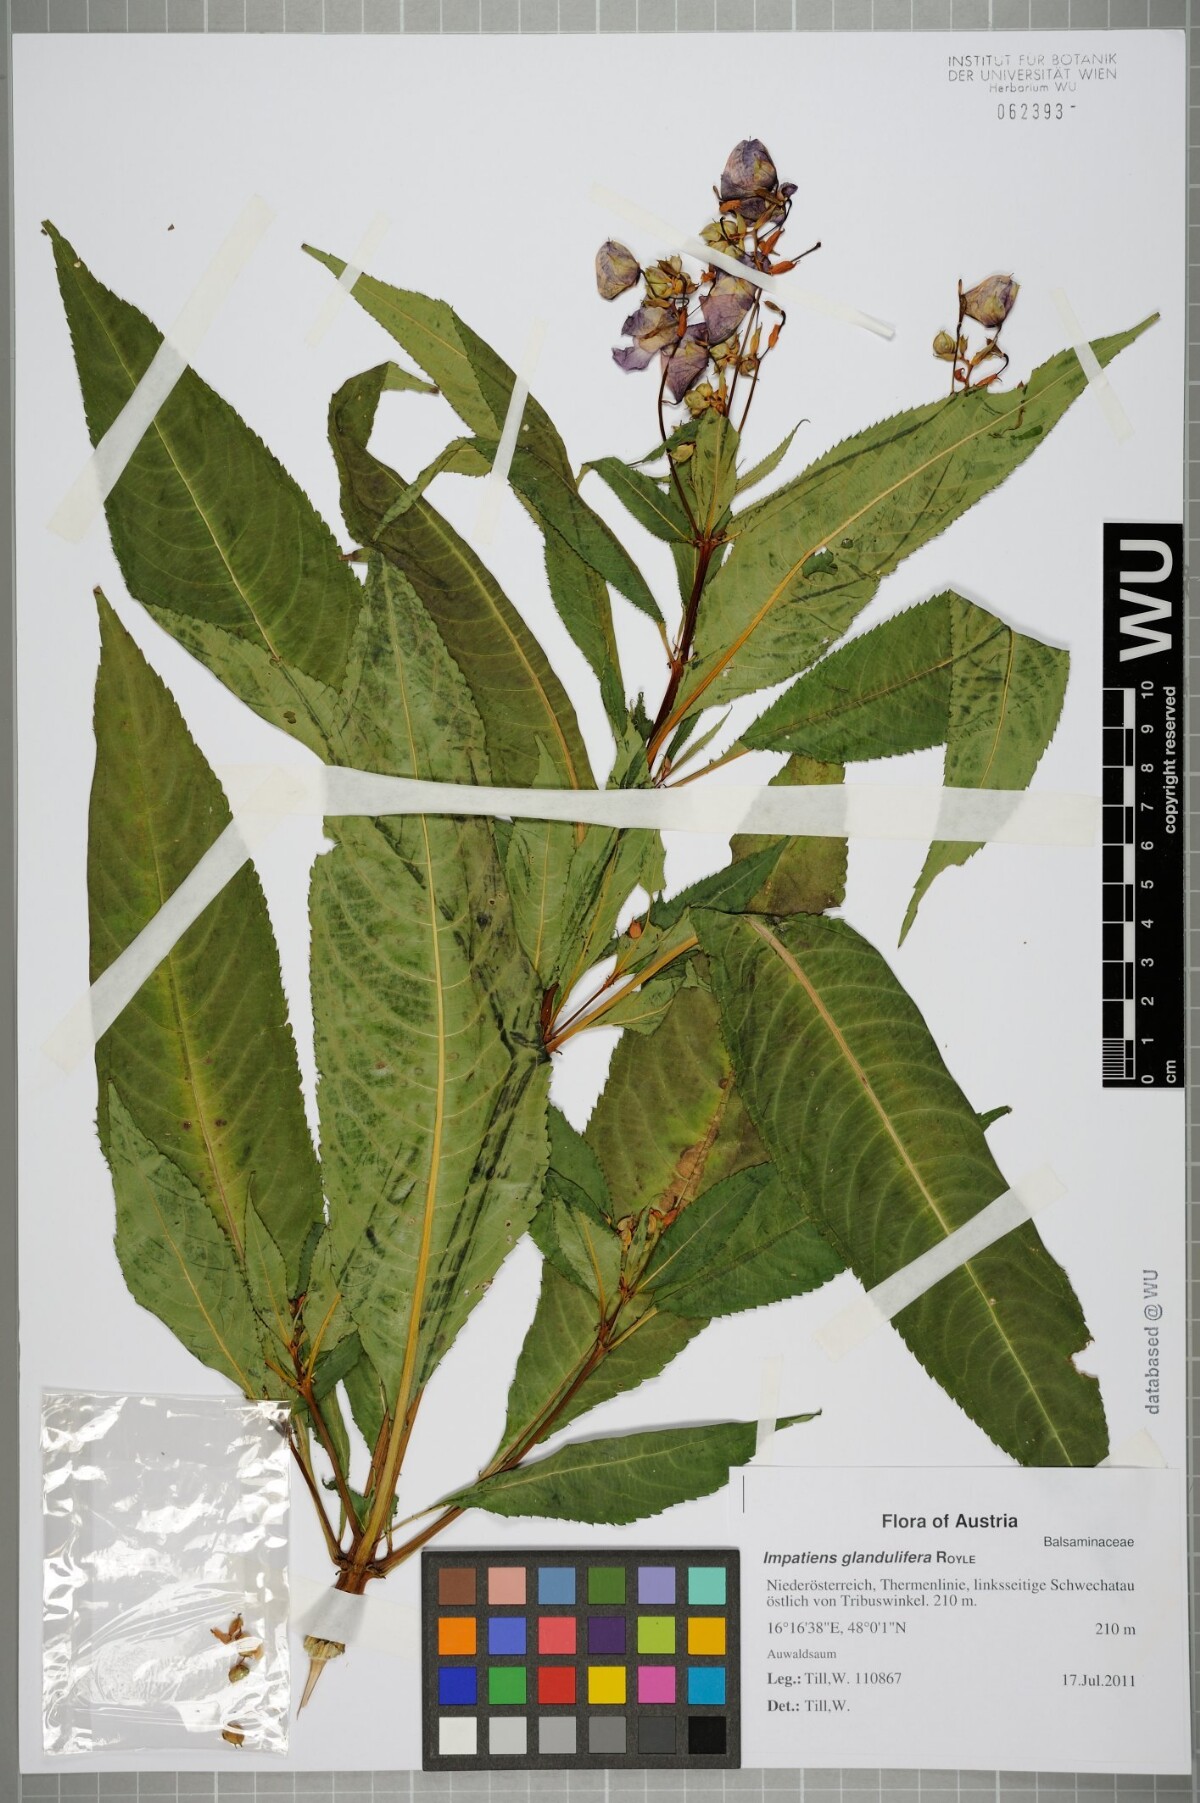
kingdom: Plantae
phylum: Tracheophyta
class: Magnoliopsida
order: Ericales
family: Balsaminaceae
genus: Impatiens
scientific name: Impatiens glandulifera
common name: Himalayan balsam
